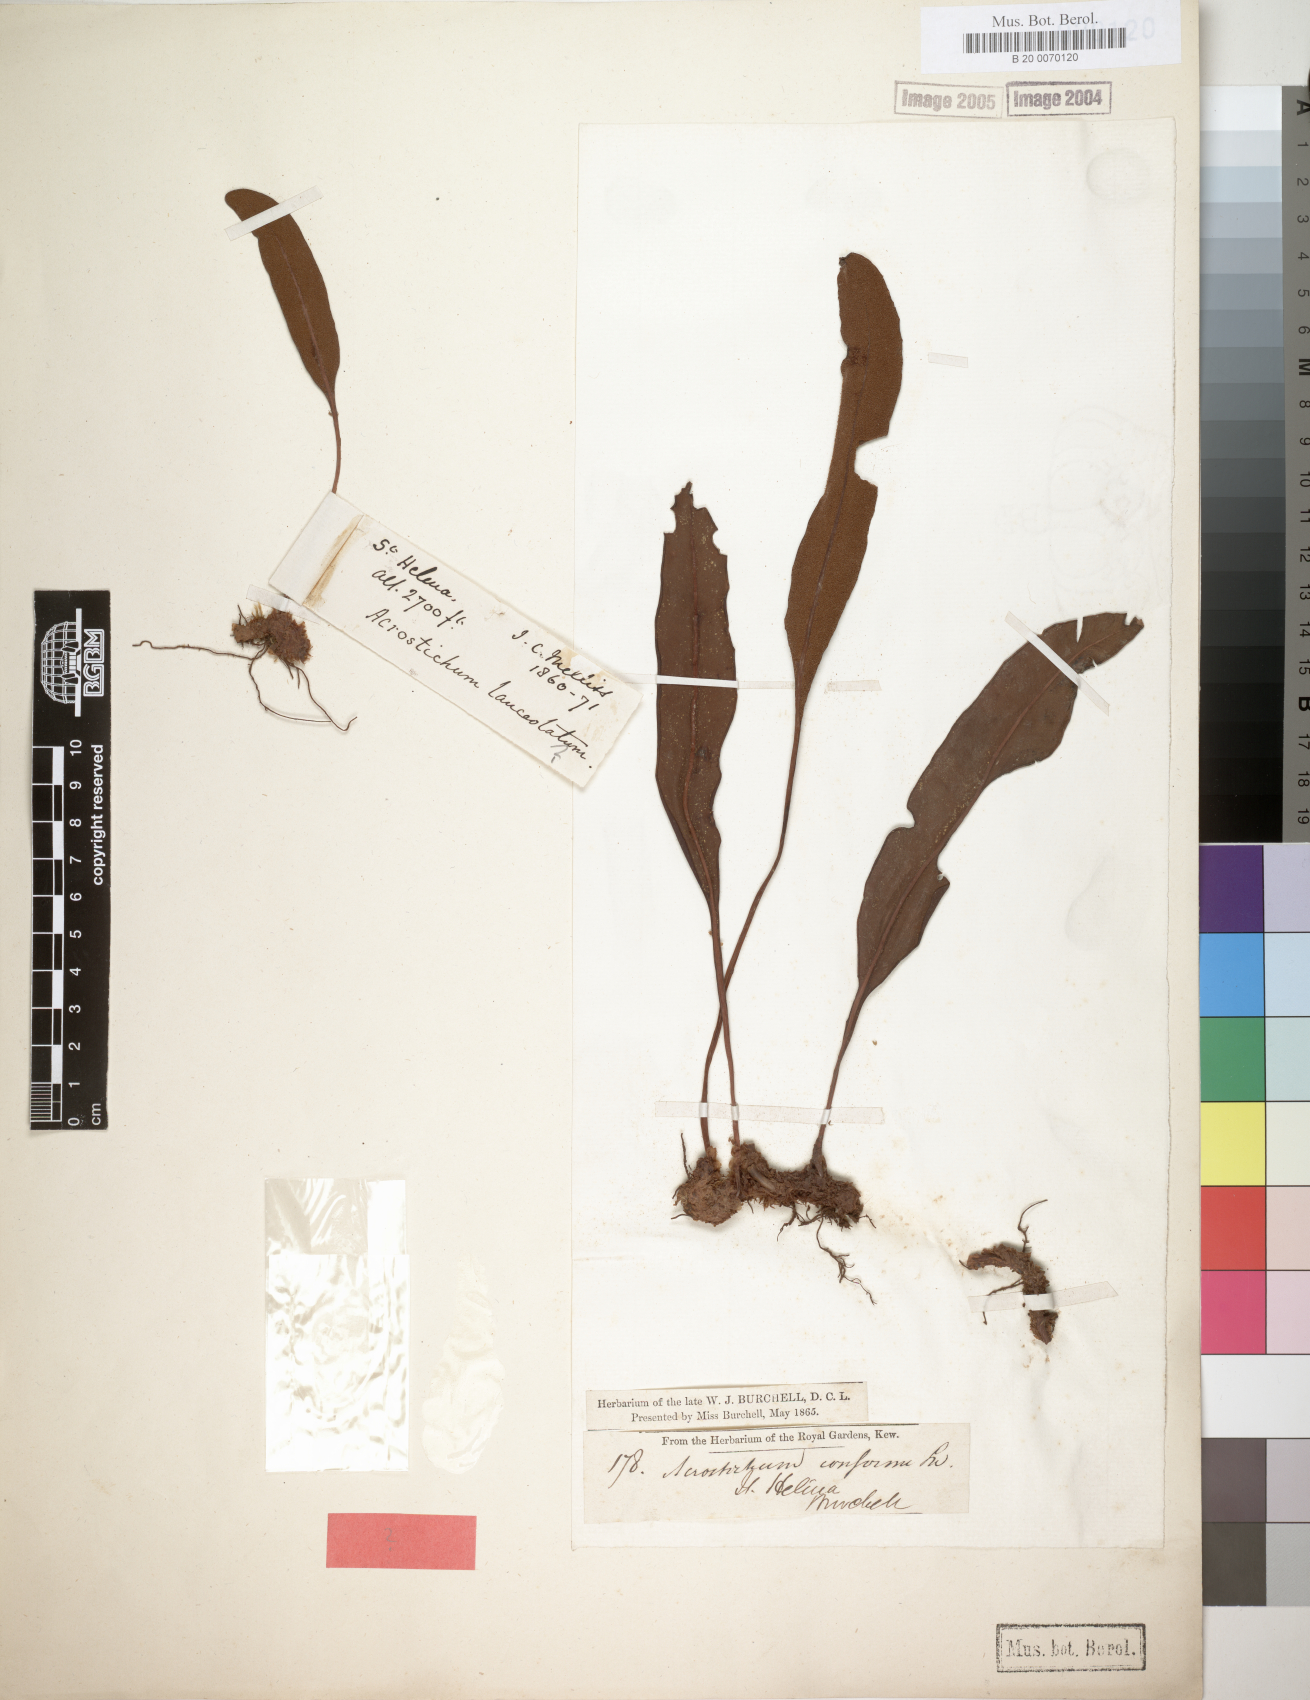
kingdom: Plantae
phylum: Tracheophyta
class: Polypodiopsida
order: Polypodiales
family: Dryopteridaceae
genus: Elaphoglossum
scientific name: Elaphoglossum conforme
